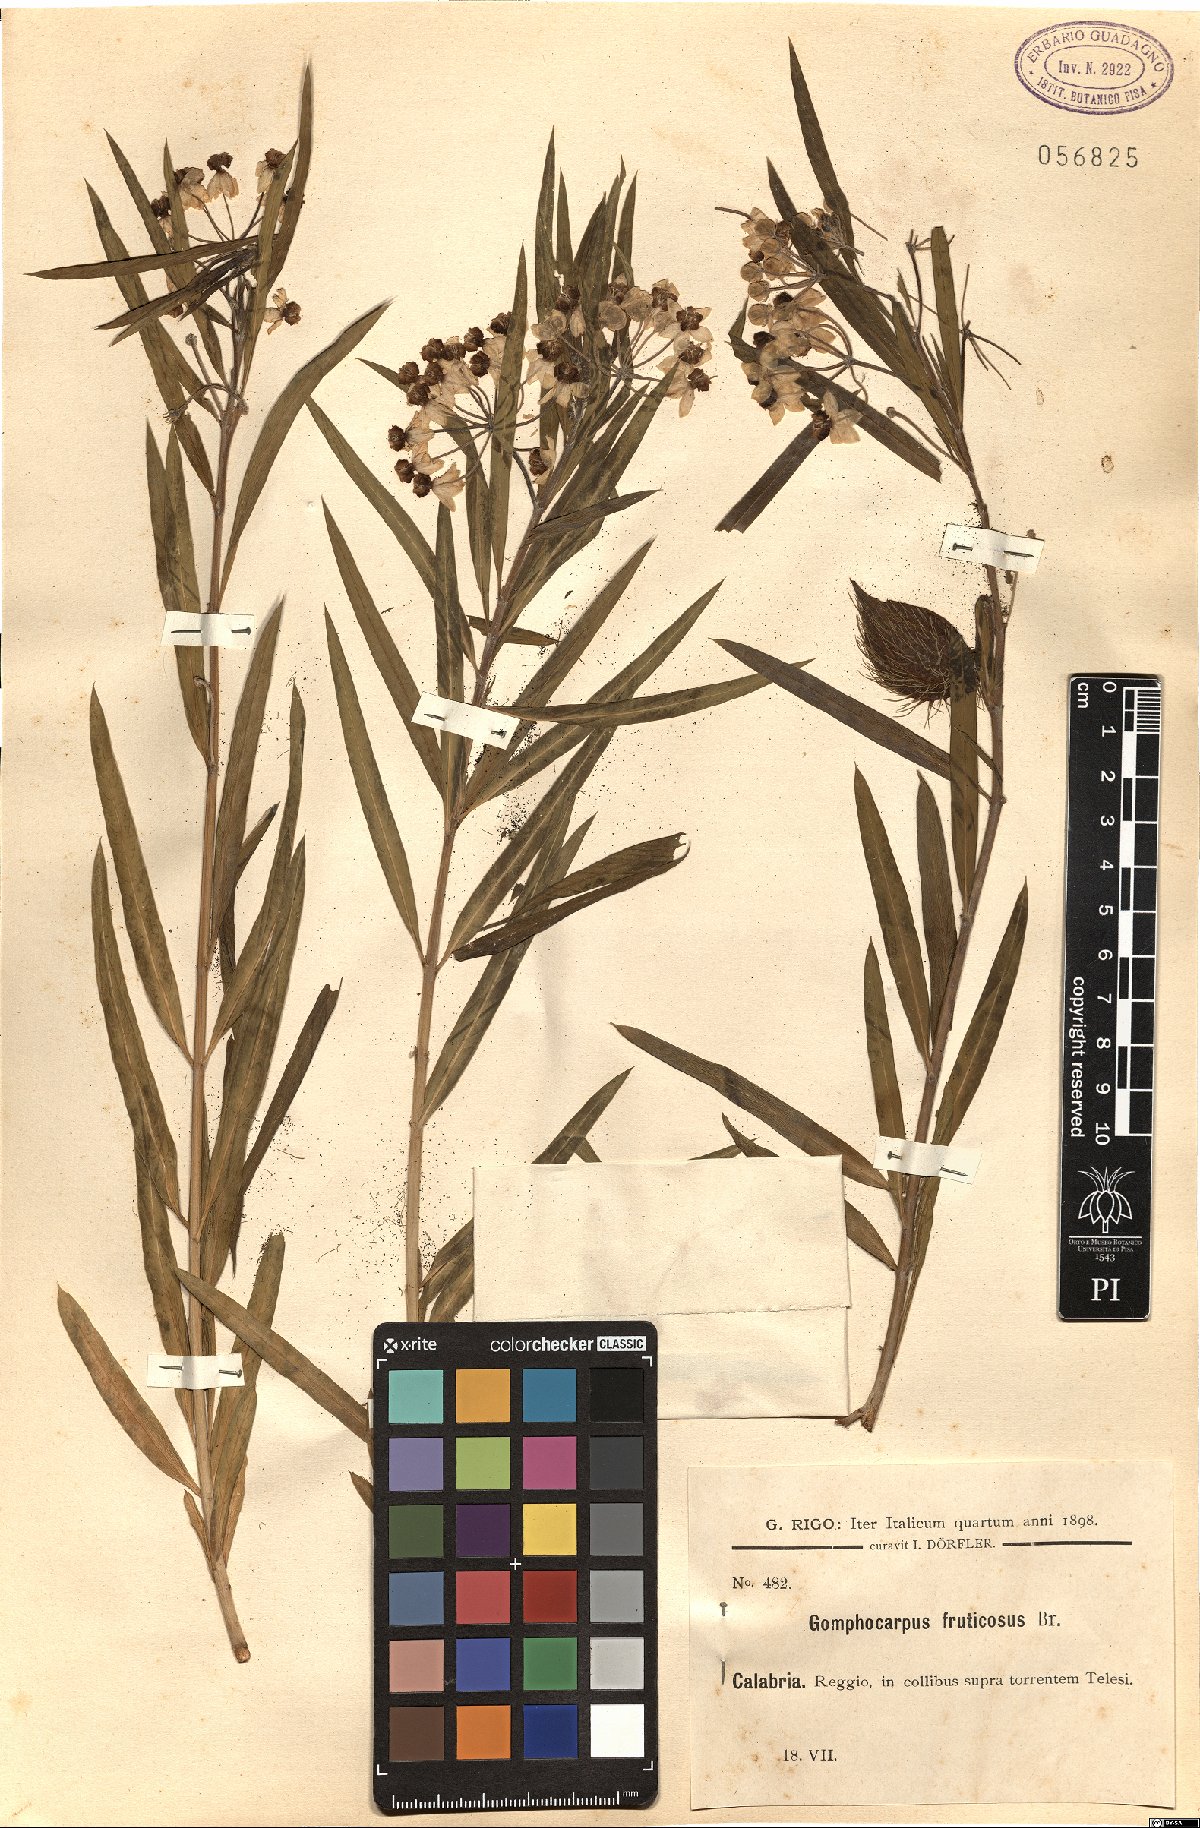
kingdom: Plantae
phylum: Tracheophyta
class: Magnoliopsida
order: Gentianales
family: Apocynaceae
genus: Gomphocarpus
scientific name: Gomphocarpus fruticosus
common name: Milkweed
